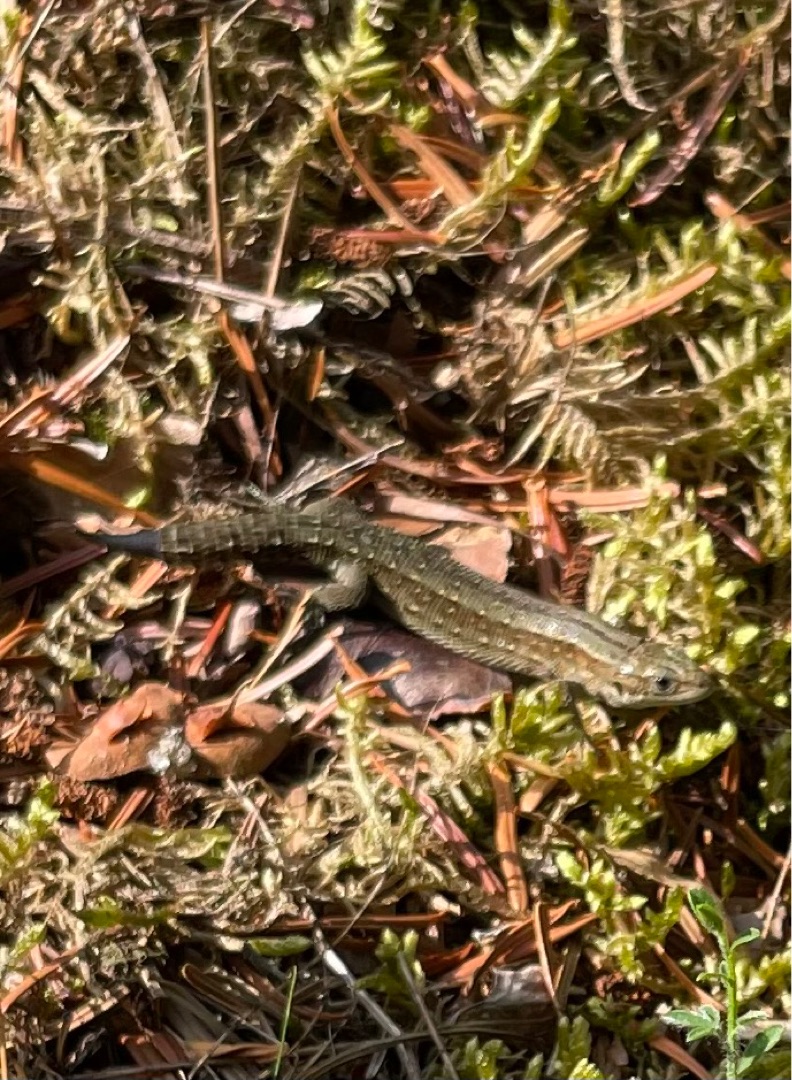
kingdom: Animalia
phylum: Chordata
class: Squamata
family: Lacertidae
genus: Zootoca
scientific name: Zootoca vivipara
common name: Skovfirben
